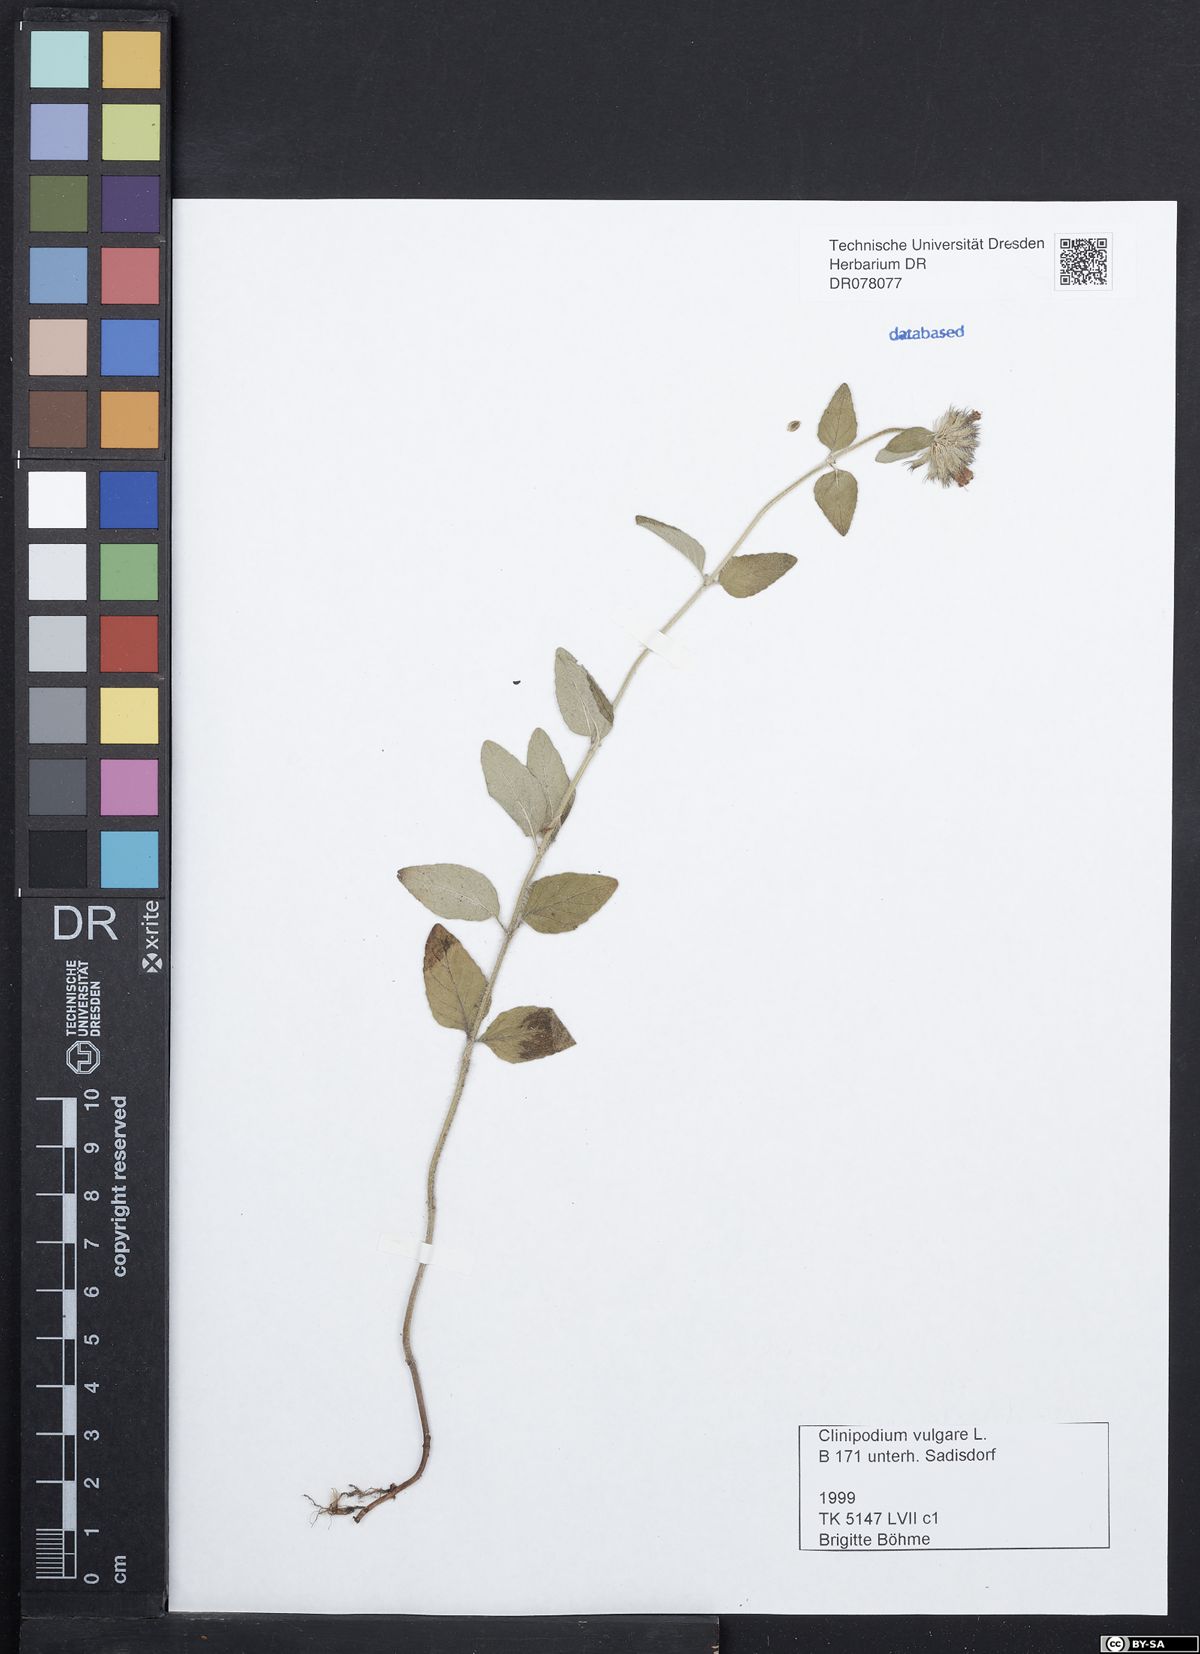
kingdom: Plantae
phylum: Tracheophyta
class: Magnoliopsida
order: Lamiales
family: Lamiaceae
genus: Clinopodium
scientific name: Clinopodium vulgare
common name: Wild basil
